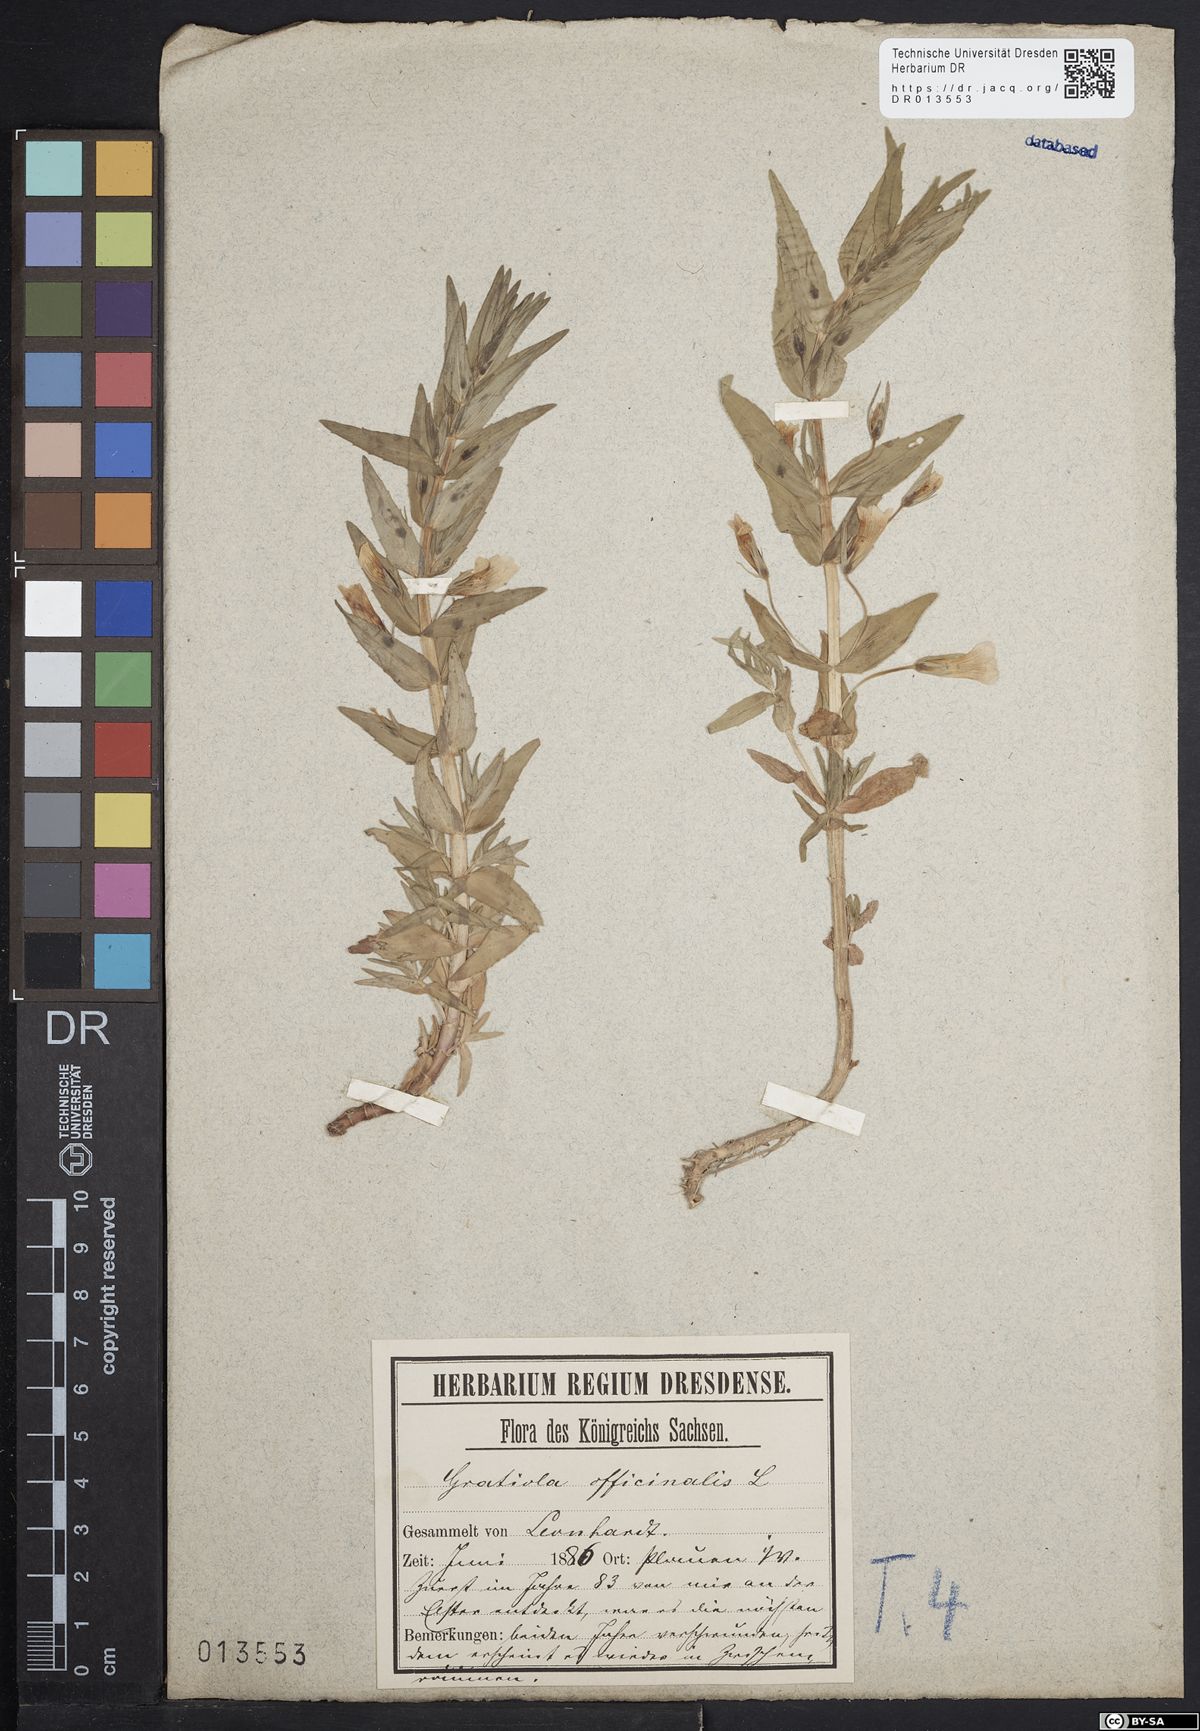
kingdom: Plantae
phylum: Tracheophyta
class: Magnoliopsida
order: Lamiales
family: Plantaginaceae
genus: Gratiola
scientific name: Gratiola officinalis
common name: Gratiola
